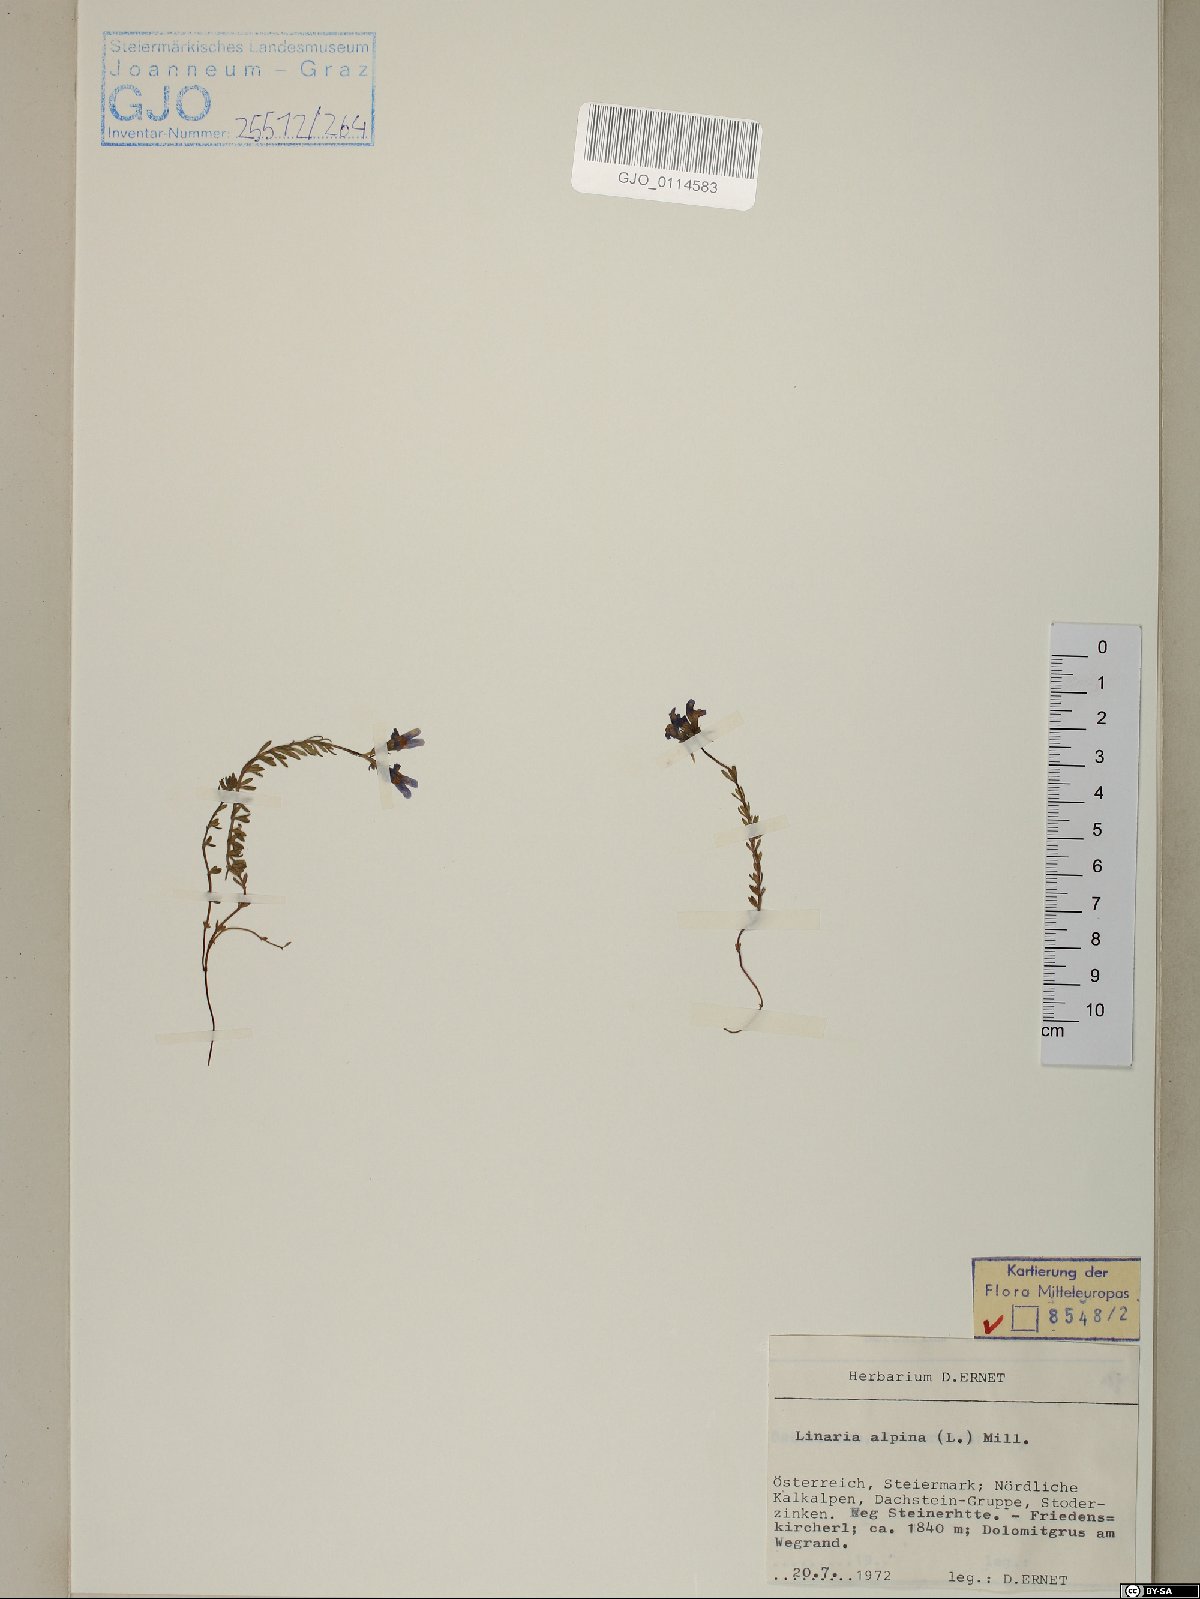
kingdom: Plantae
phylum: Tracheophyta
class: Magnoliopsida
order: Lamiales
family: Plantaginaceae
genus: Linaria
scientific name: Linaria alpina
